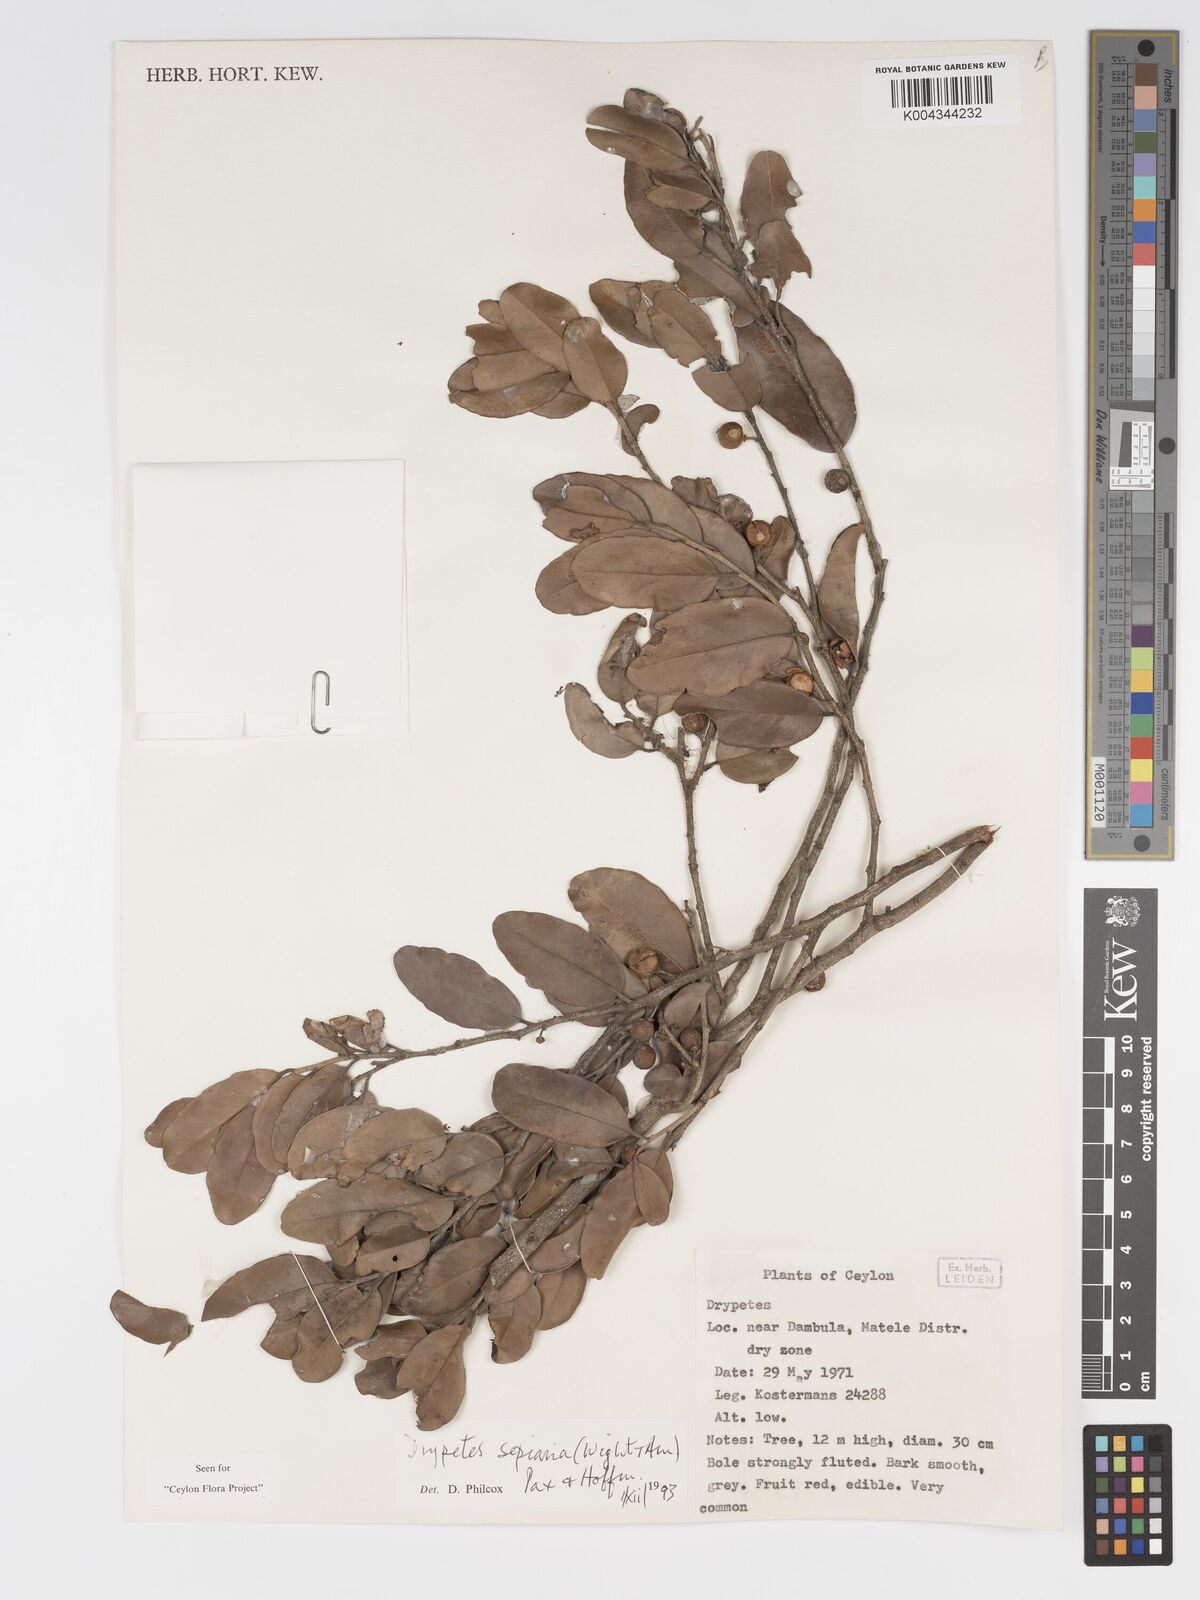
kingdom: Plantae
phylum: Tracheophyta
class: Magnoliopsida
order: Malpighiales
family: Putranjivaceae
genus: Drypetes
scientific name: Drypetes sepiaria
